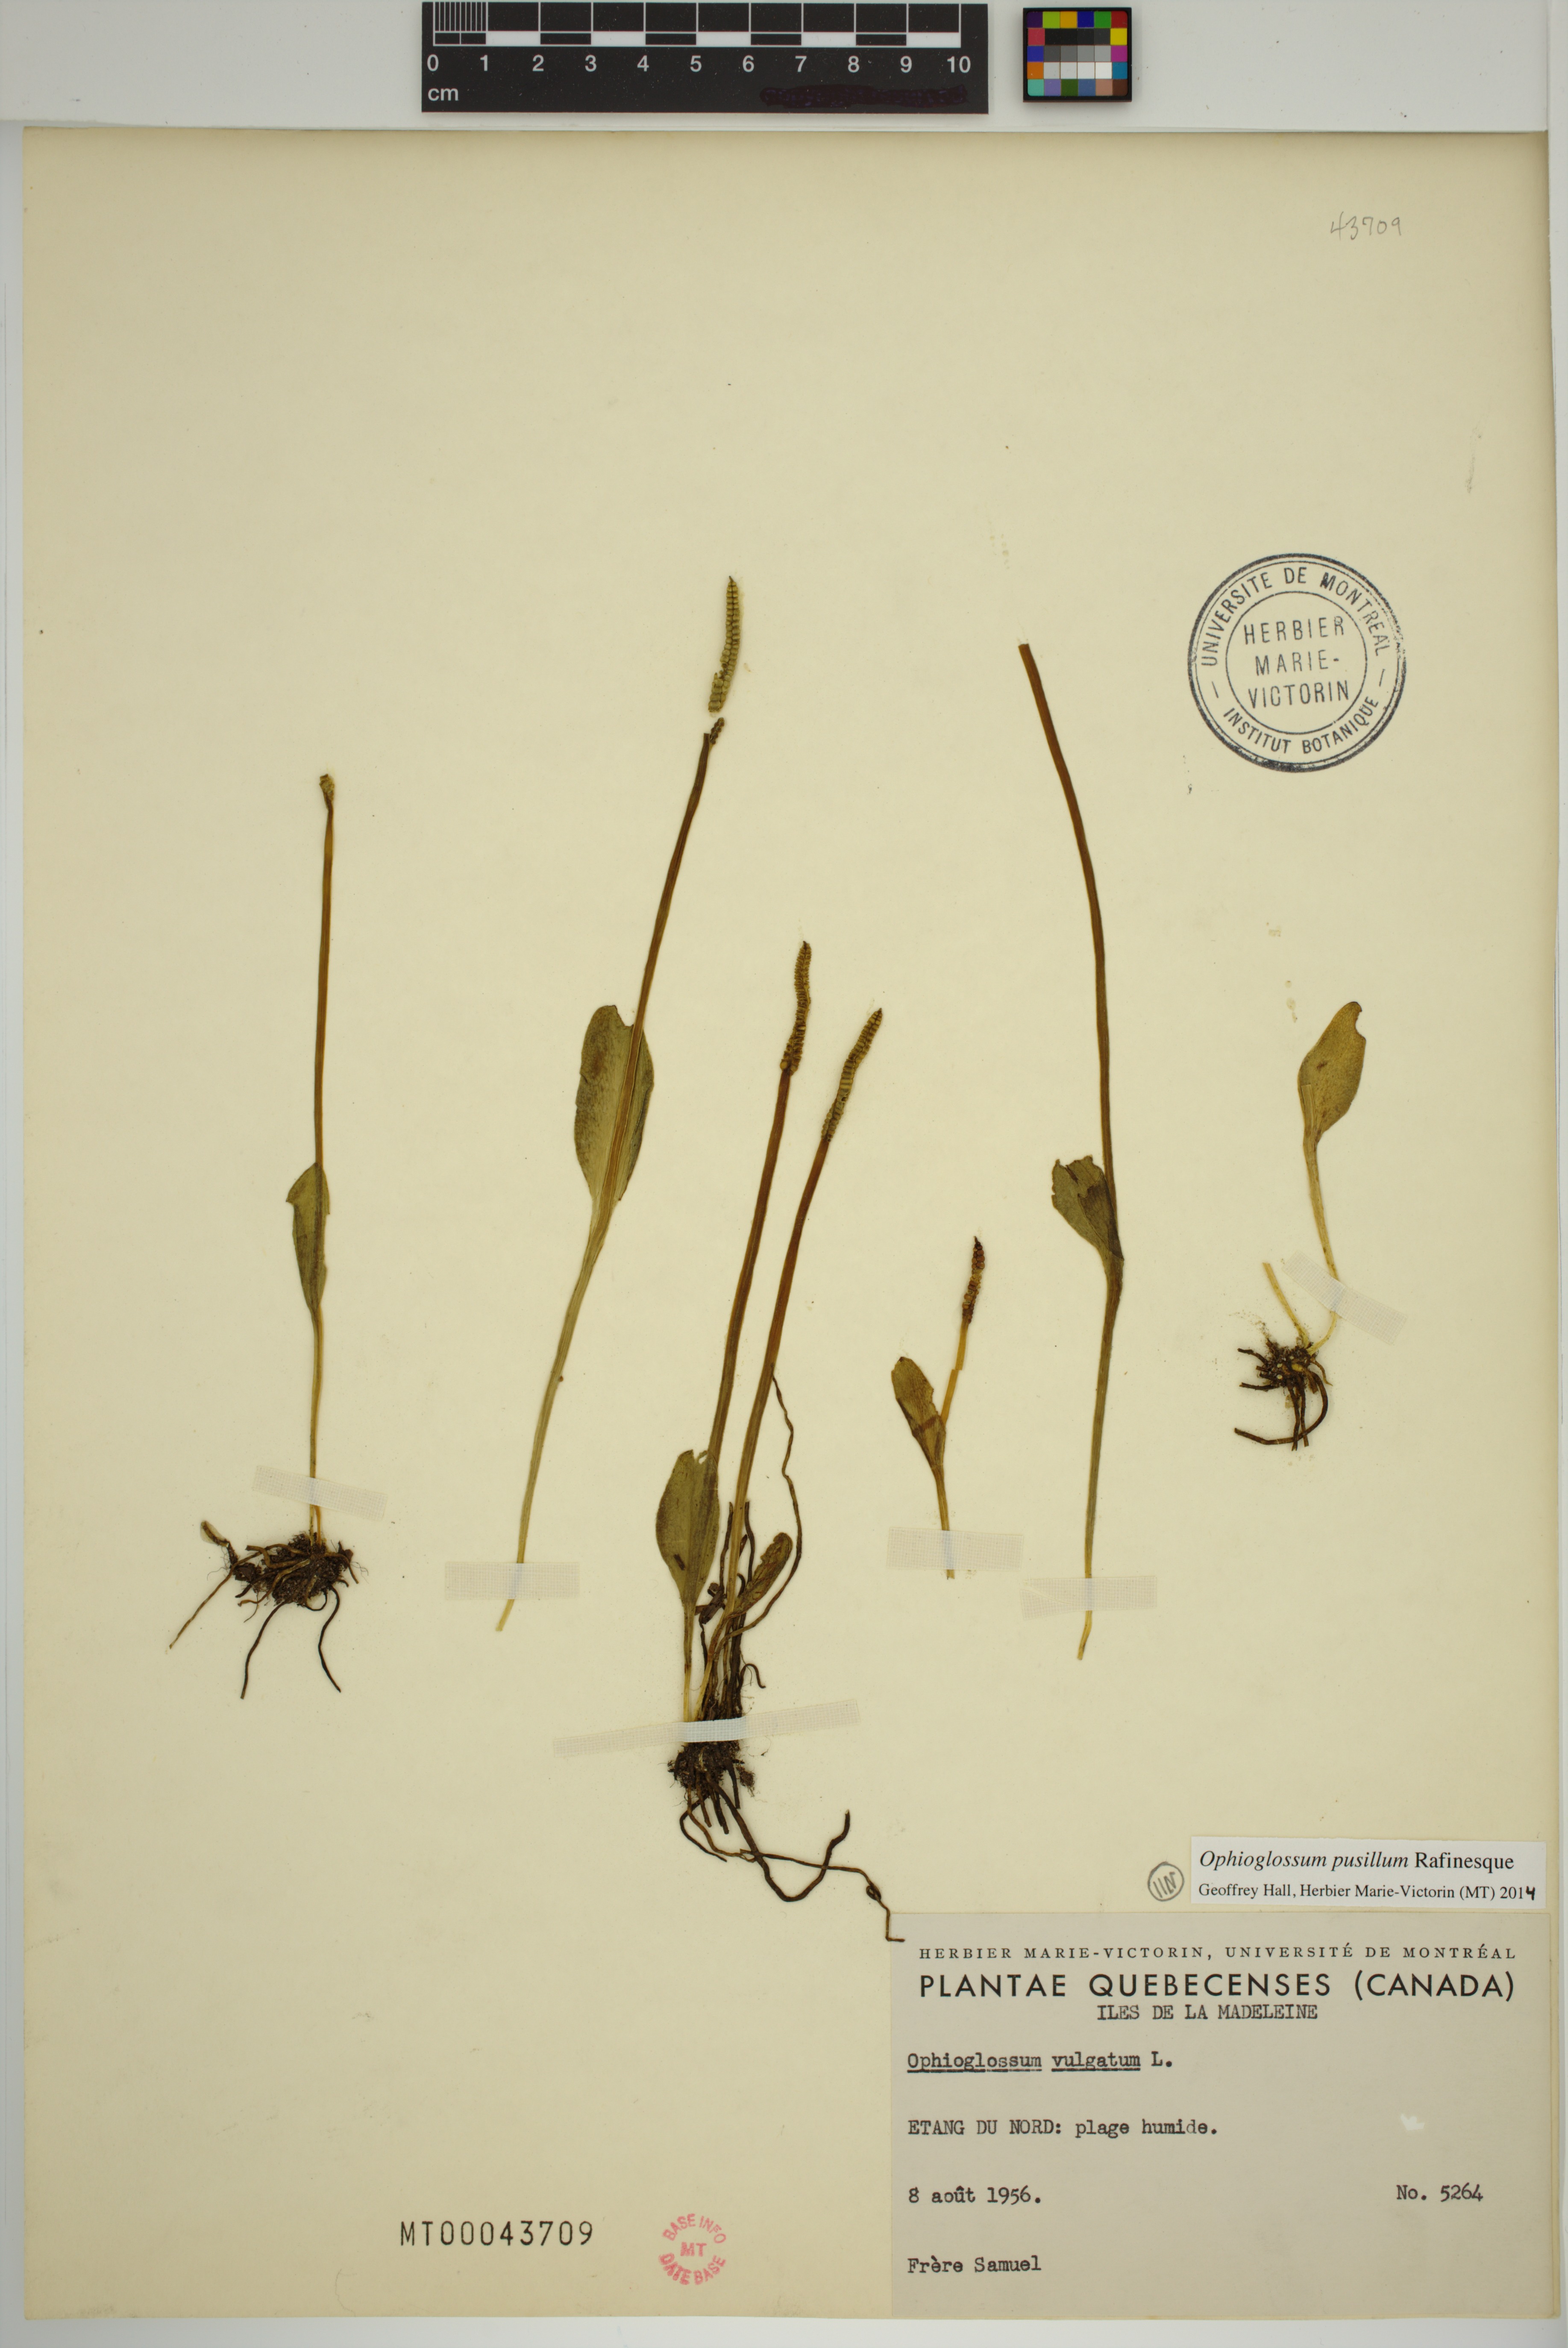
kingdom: Plantae
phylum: Tracheophyta
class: Polypodiopsida
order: Ophioglossales
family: Ophioglossaceae
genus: Ophioglossum
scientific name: Ophioglossum pusillum
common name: Northern adder's-tongue
